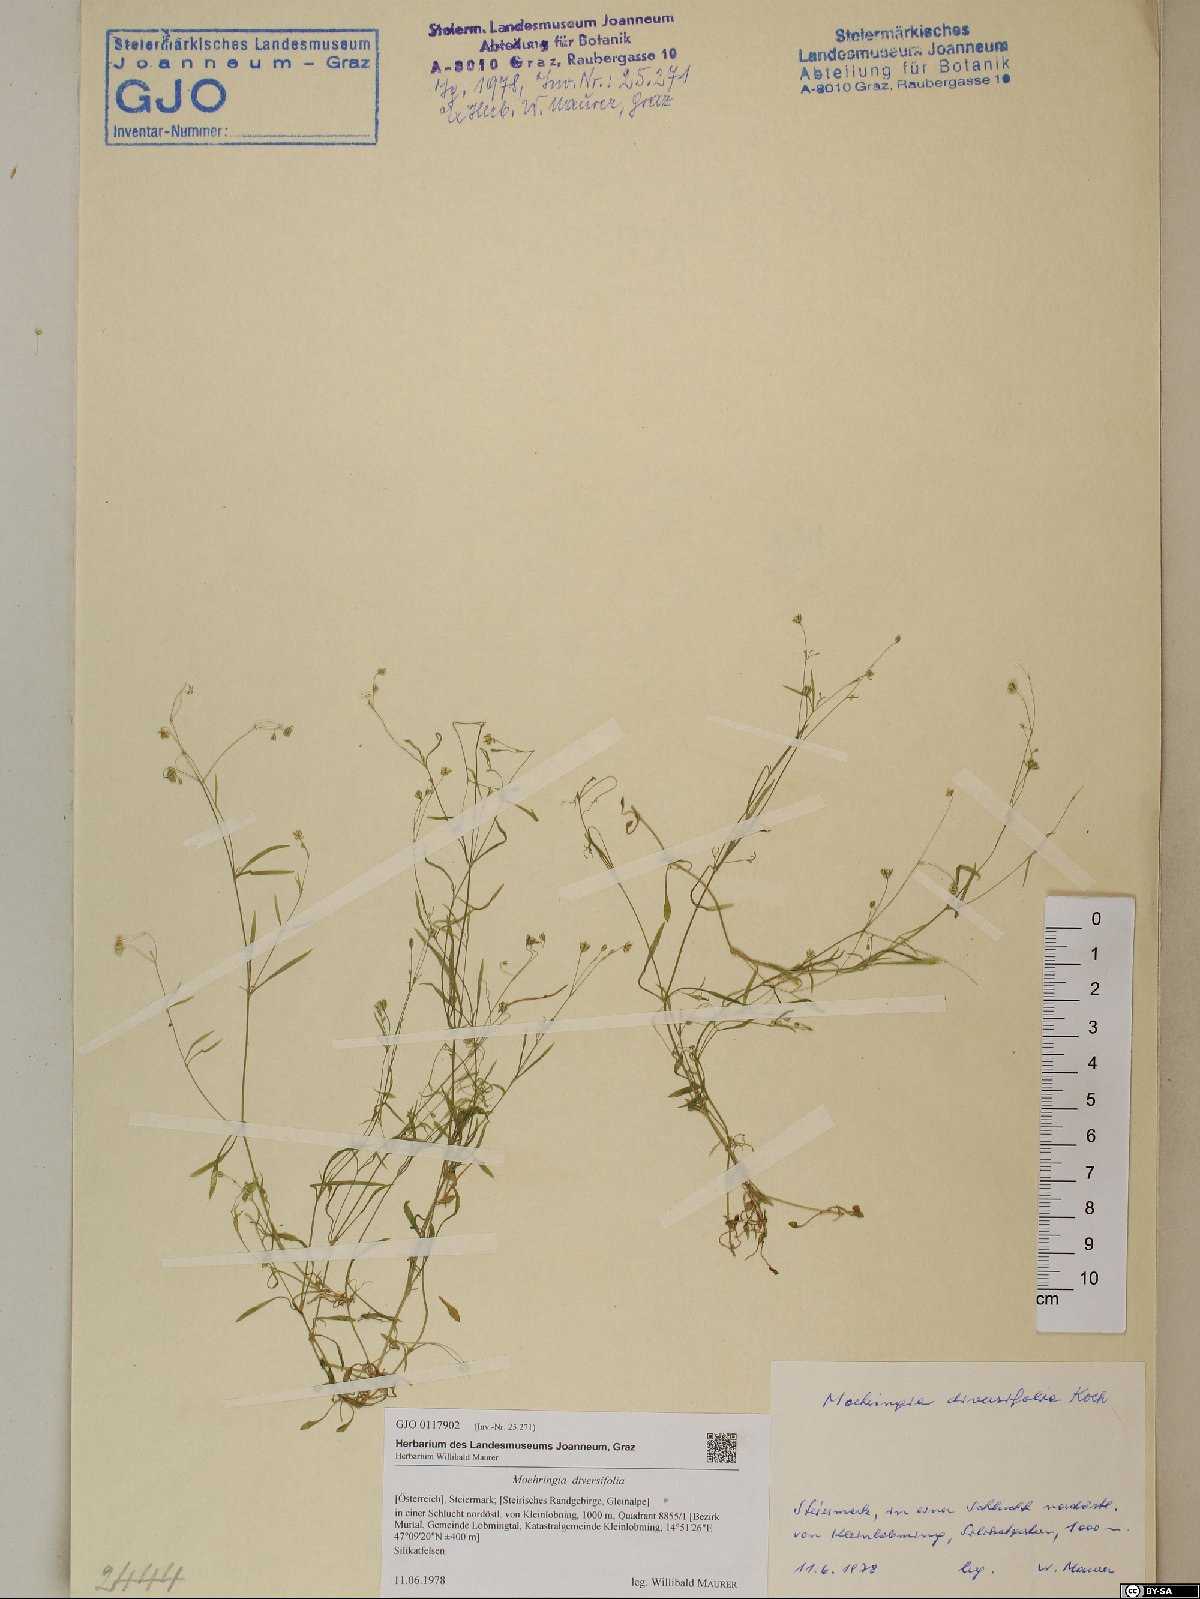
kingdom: Plantae
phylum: Tracheophyta
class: Magnoliopsida
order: Caryophyllales
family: Caryophyllaceae
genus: Moehringia
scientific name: Moehringia diversifolia
